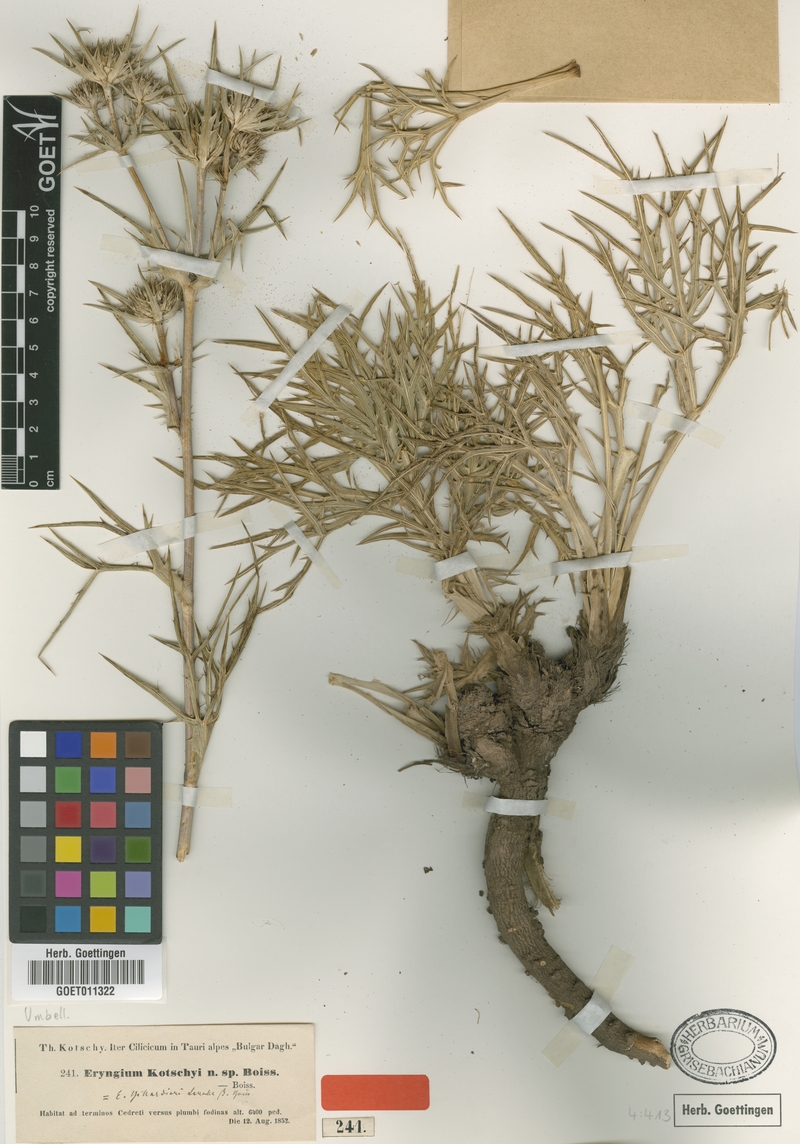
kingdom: Plantae
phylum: Tracheophyta
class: Magnoliopsida
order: Apiales
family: Apiaceae
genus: Eryngium
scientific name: Eryngium kotschyi
